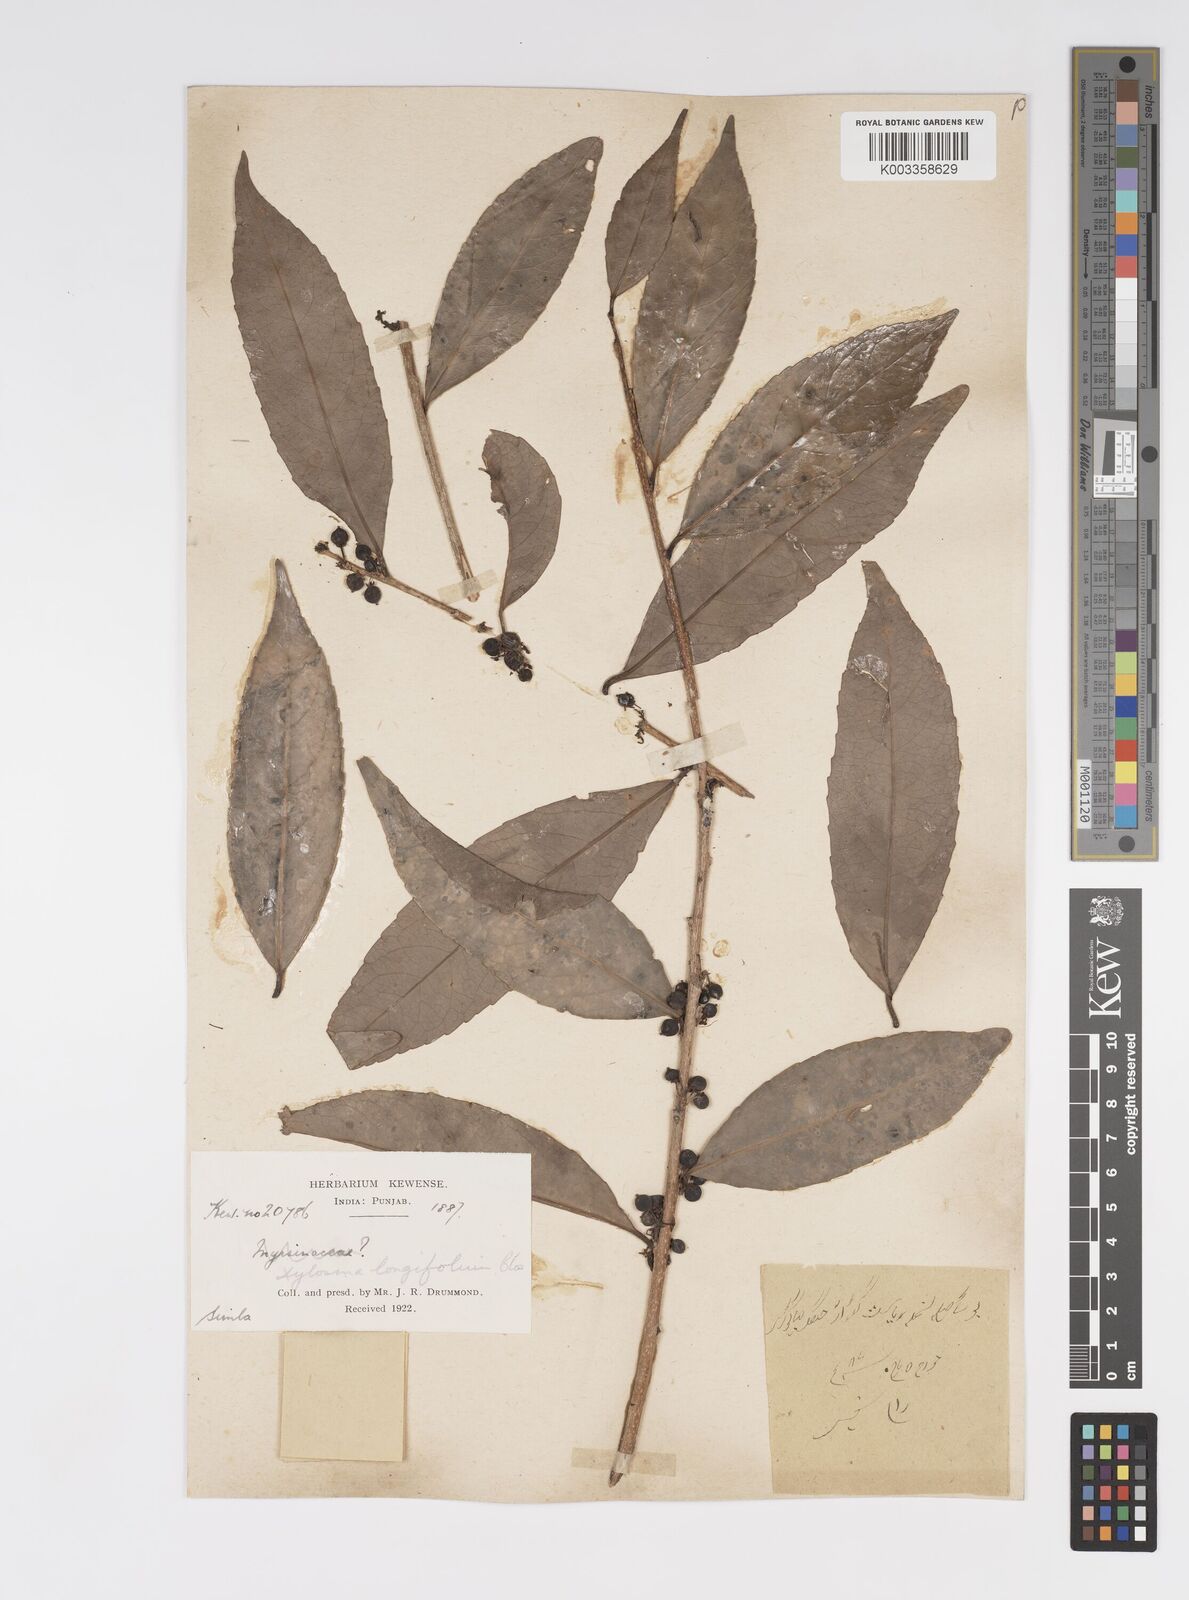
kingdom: Plantae
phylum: Tracheophyta
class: Magnoliopsida
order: Malpighiales
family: Salicaceae
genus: Xylosma
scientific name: Xylosma longifolia
